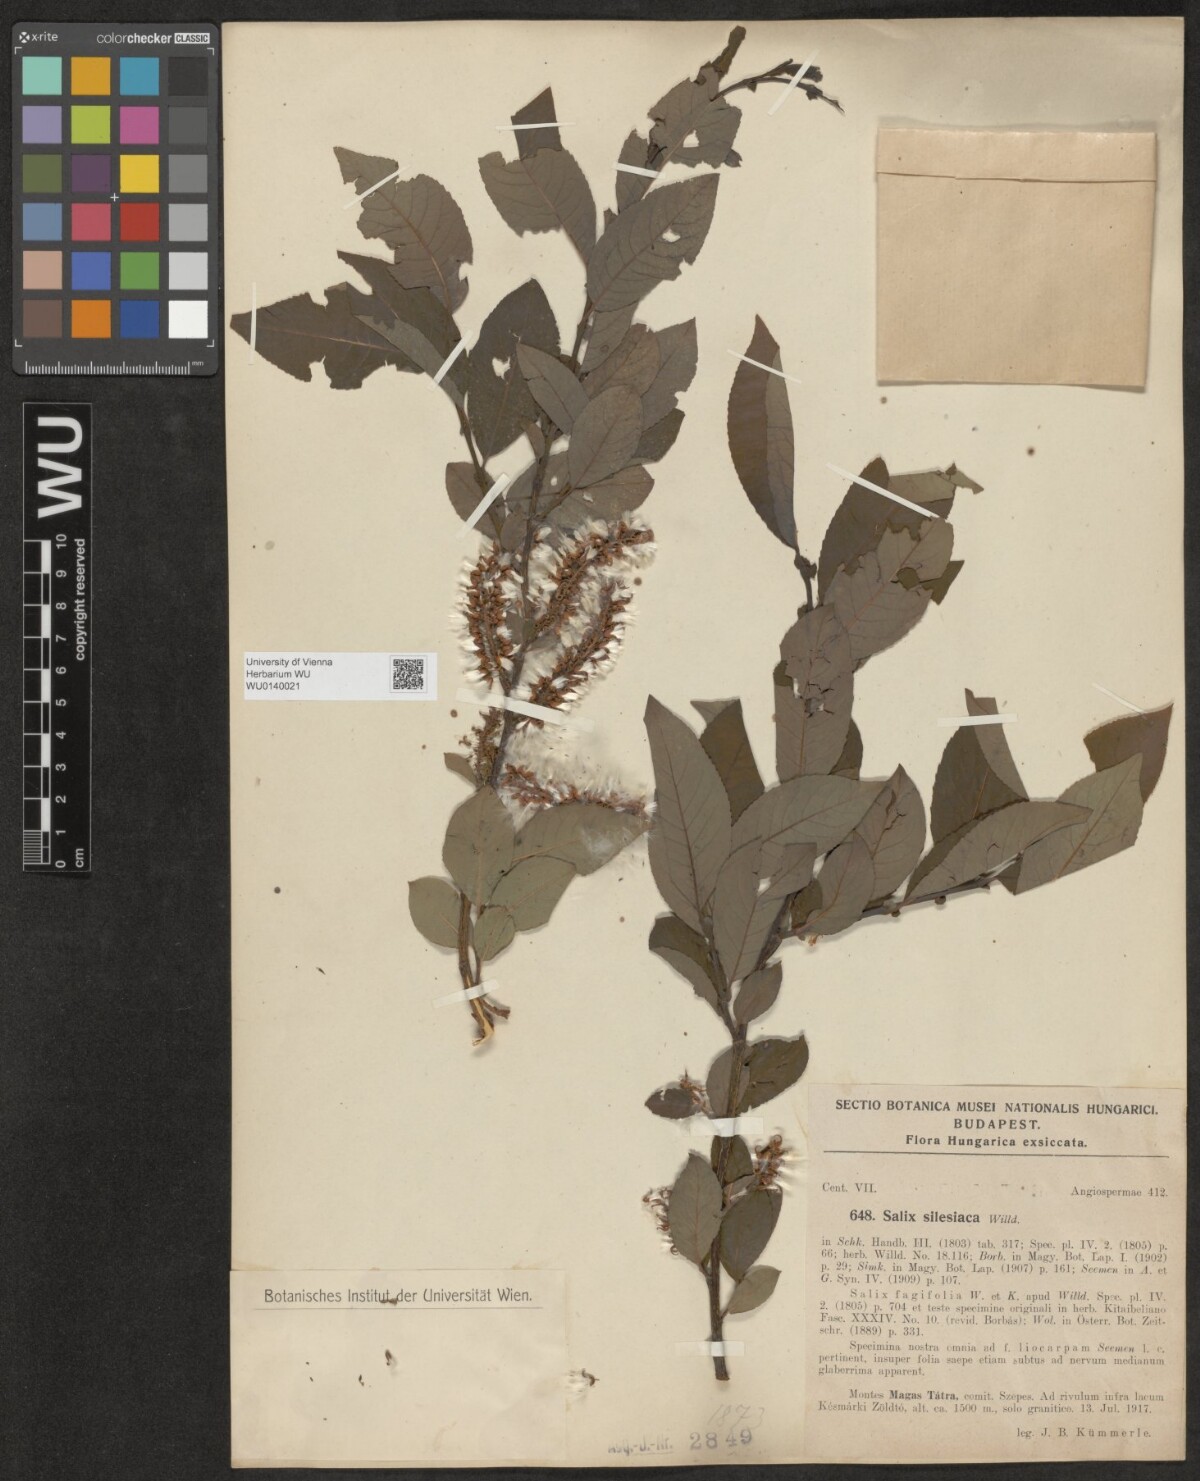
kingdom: Plantae
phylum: Tracheophyta
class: Magnoliopsida
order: Malpighiales
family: Salicaceae
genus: Salix
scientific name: Salix silesiaca
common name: Silesian willow
